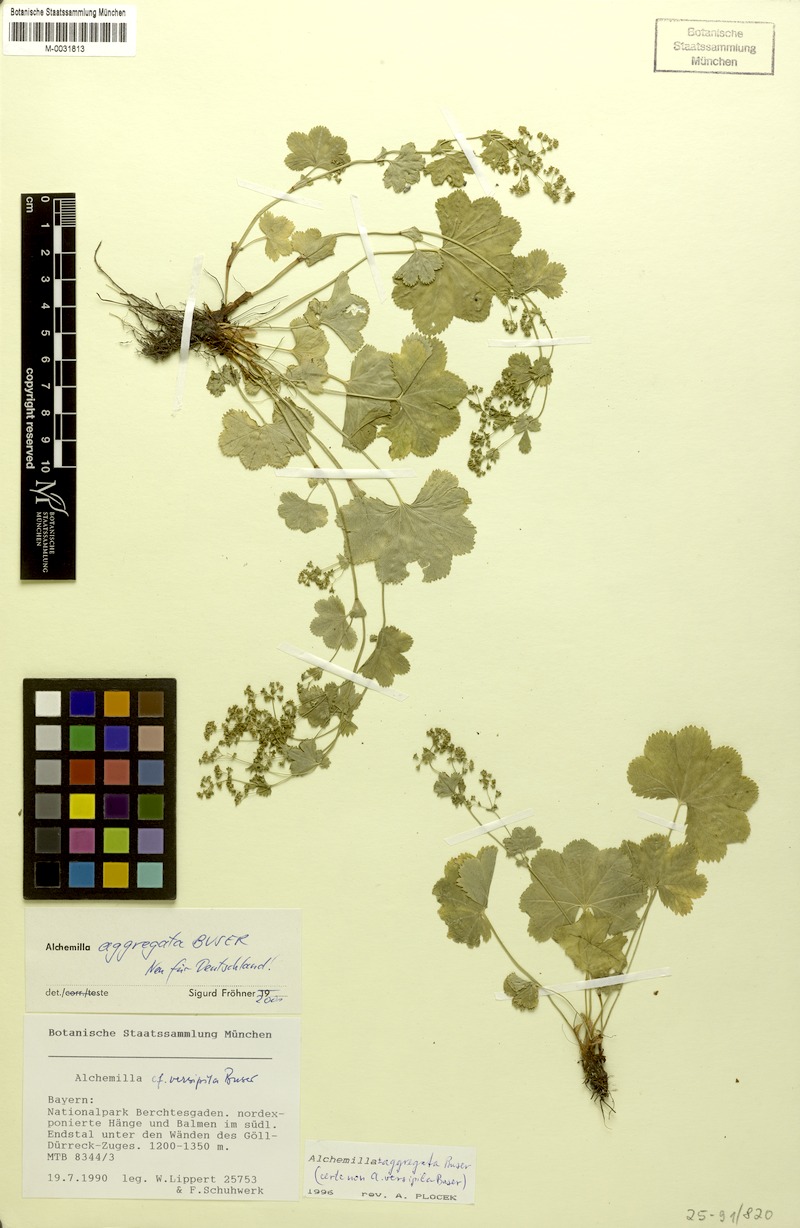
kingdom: Plantae
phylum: Tracheophyta
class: Magnoliopsida
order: Rosales
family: Rosaceae
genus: Alchemilla
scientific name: Alchemilla aggregata
